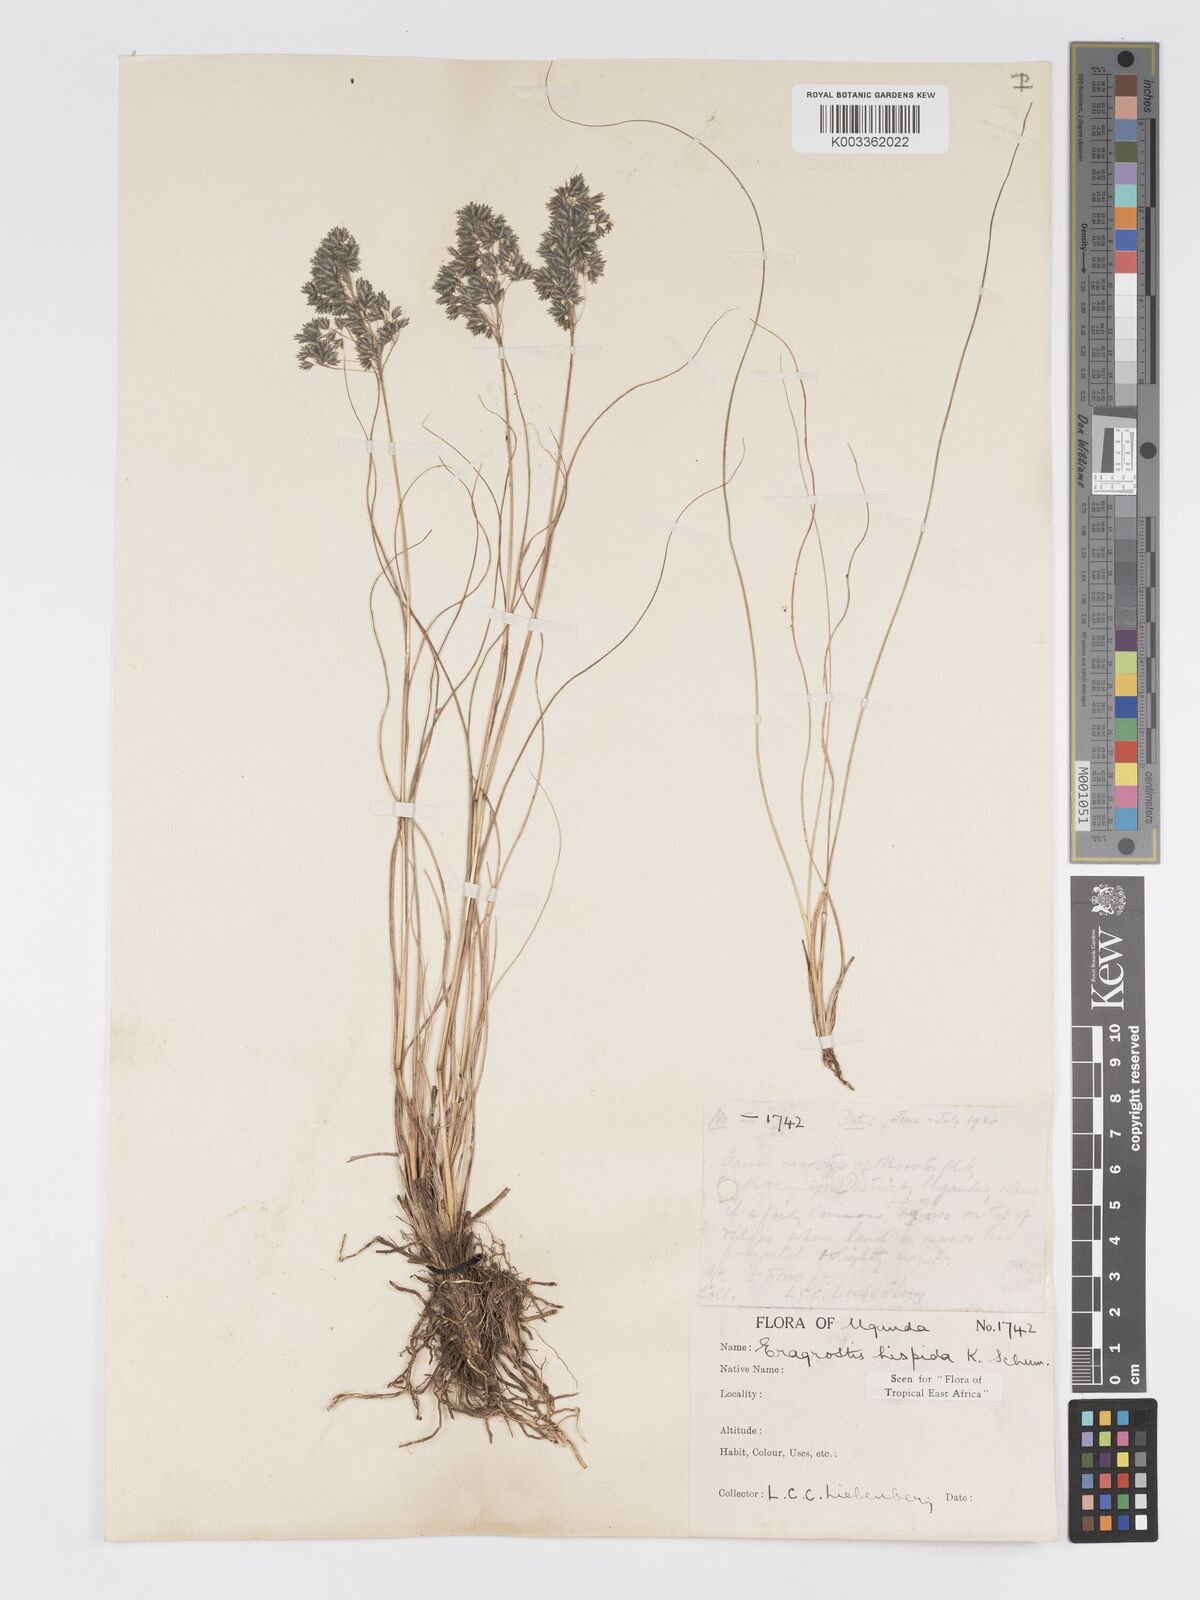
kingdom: Plantae
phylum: Tracheophyta
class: Liliopsida
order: Poales
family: Poaceae
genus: Eragrostis
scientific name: Eragrostis hispida
